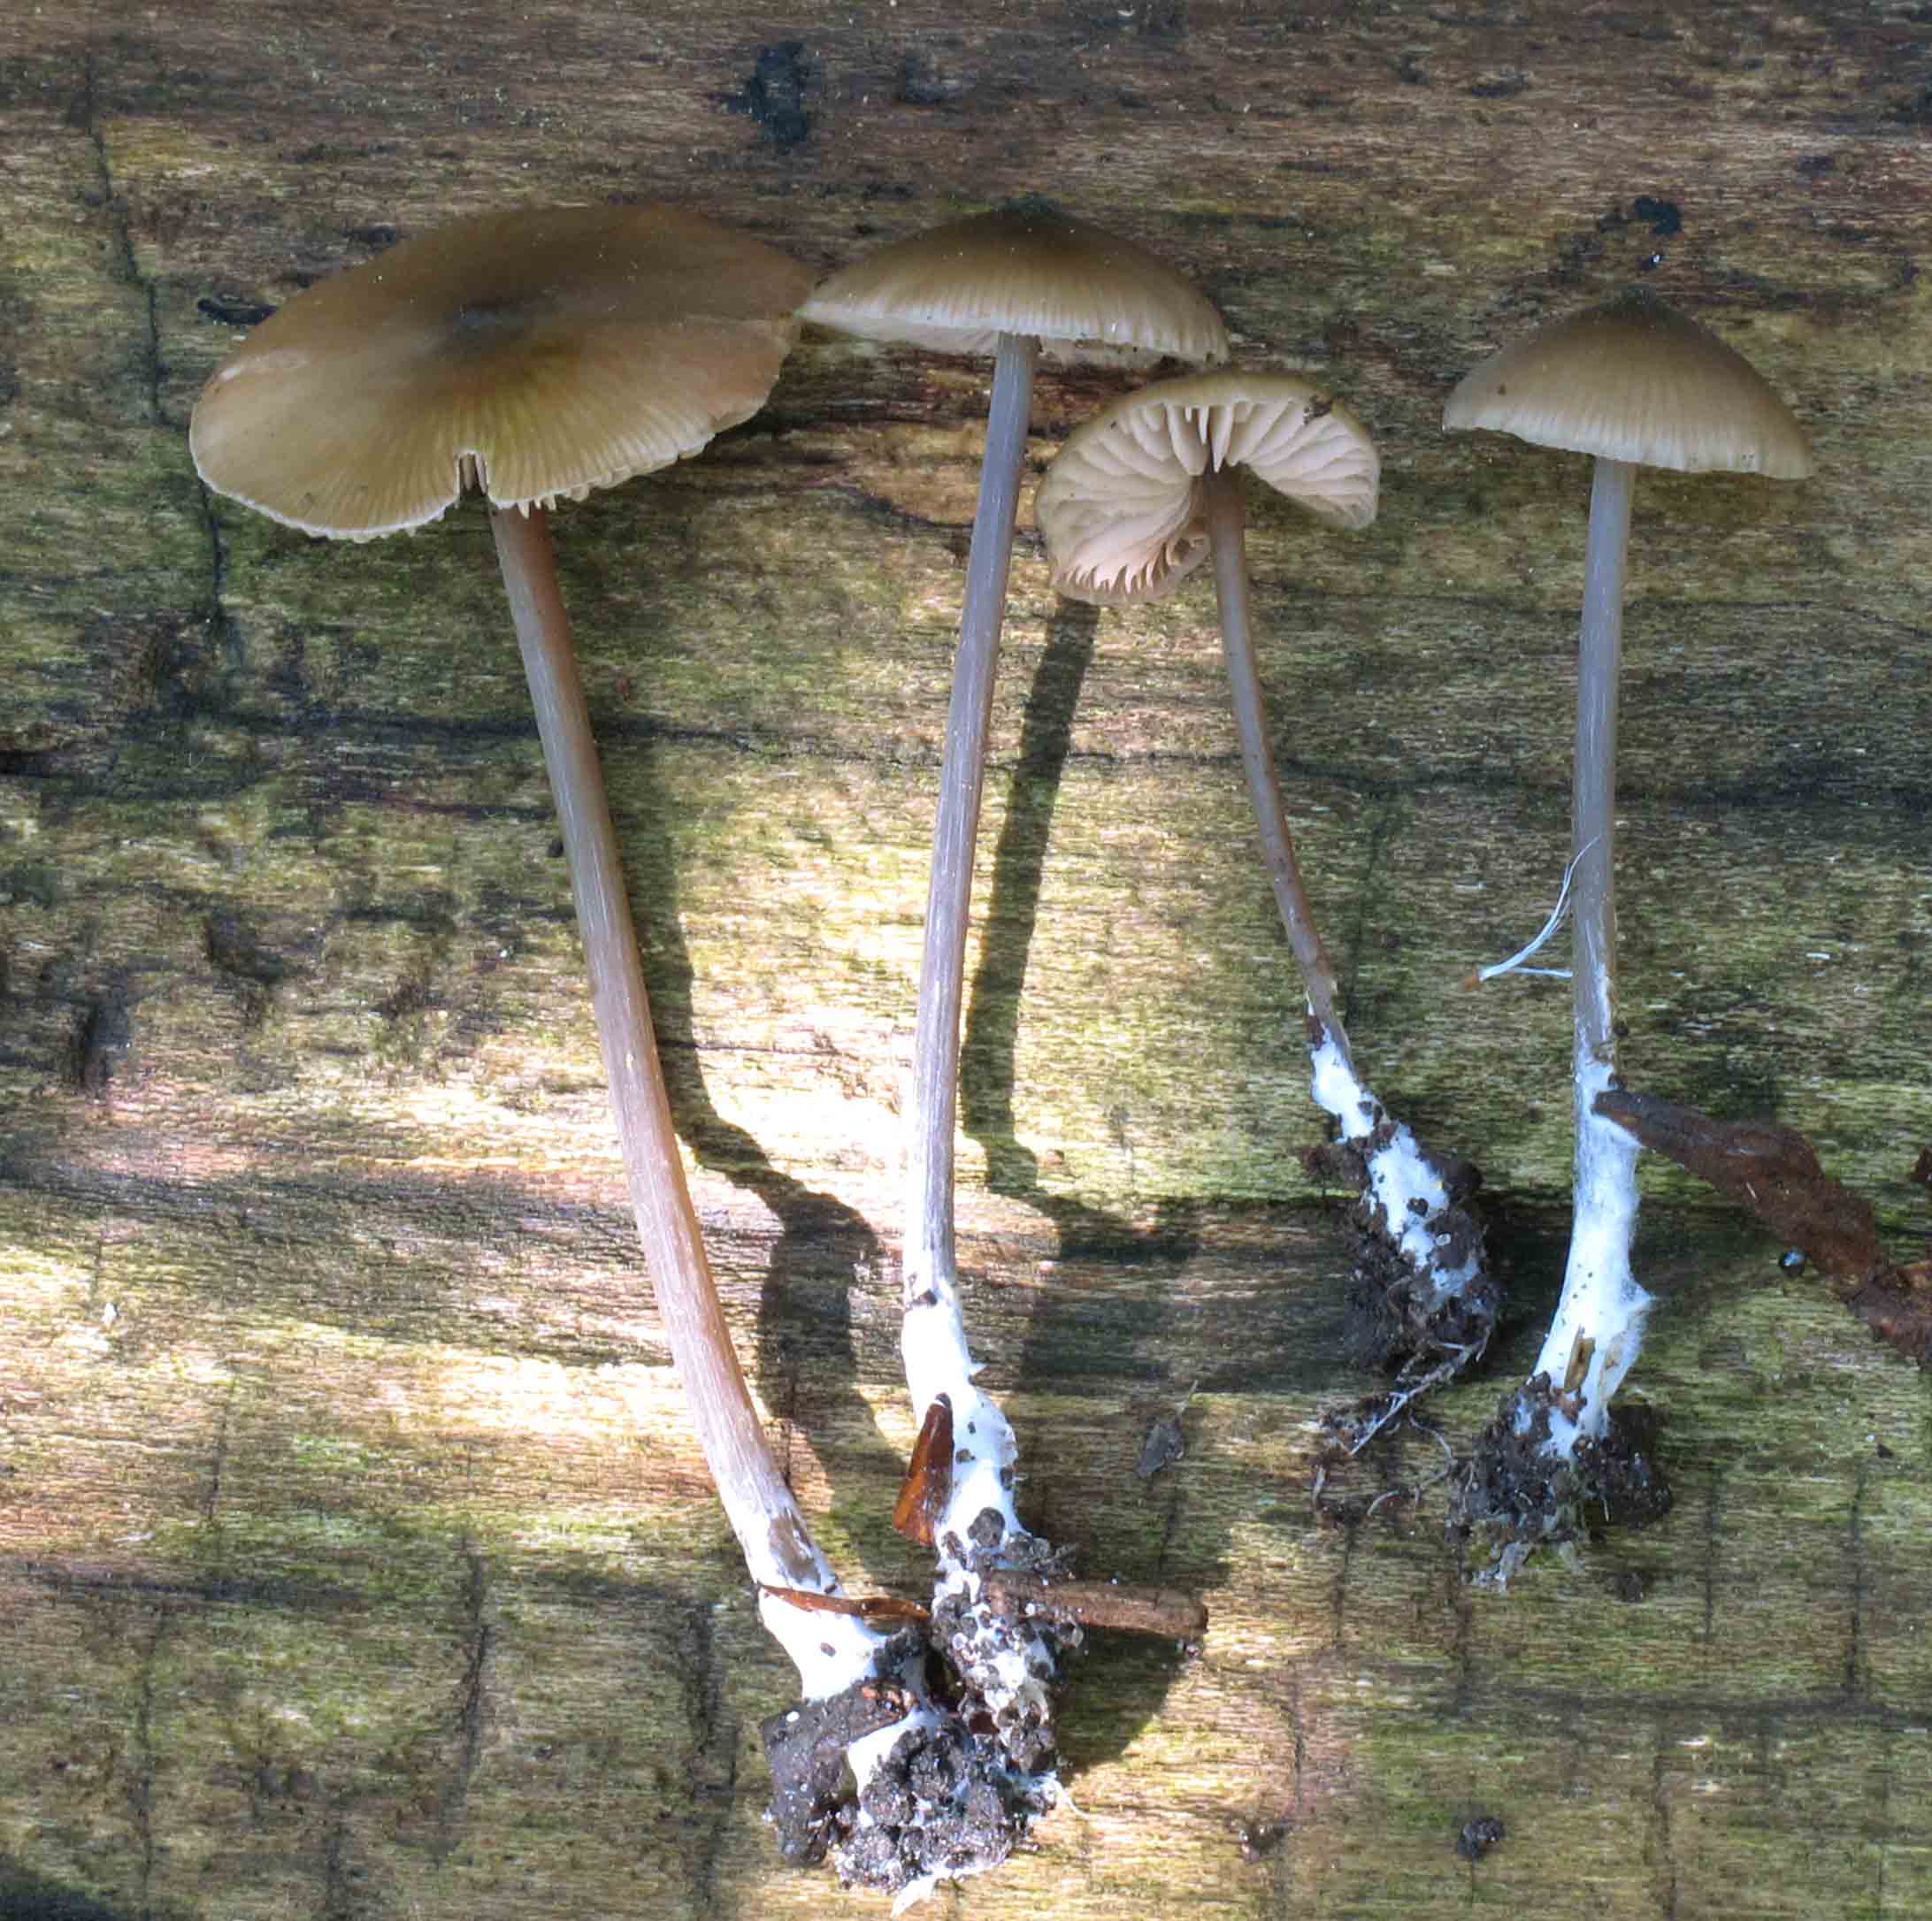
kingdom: Fungi
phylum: Basidiomycota
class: Agaricomycetes
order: Agaricales
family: Entolomataceae
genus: Entoloma
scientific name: Entoloma hebes
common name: krat-rødblad
